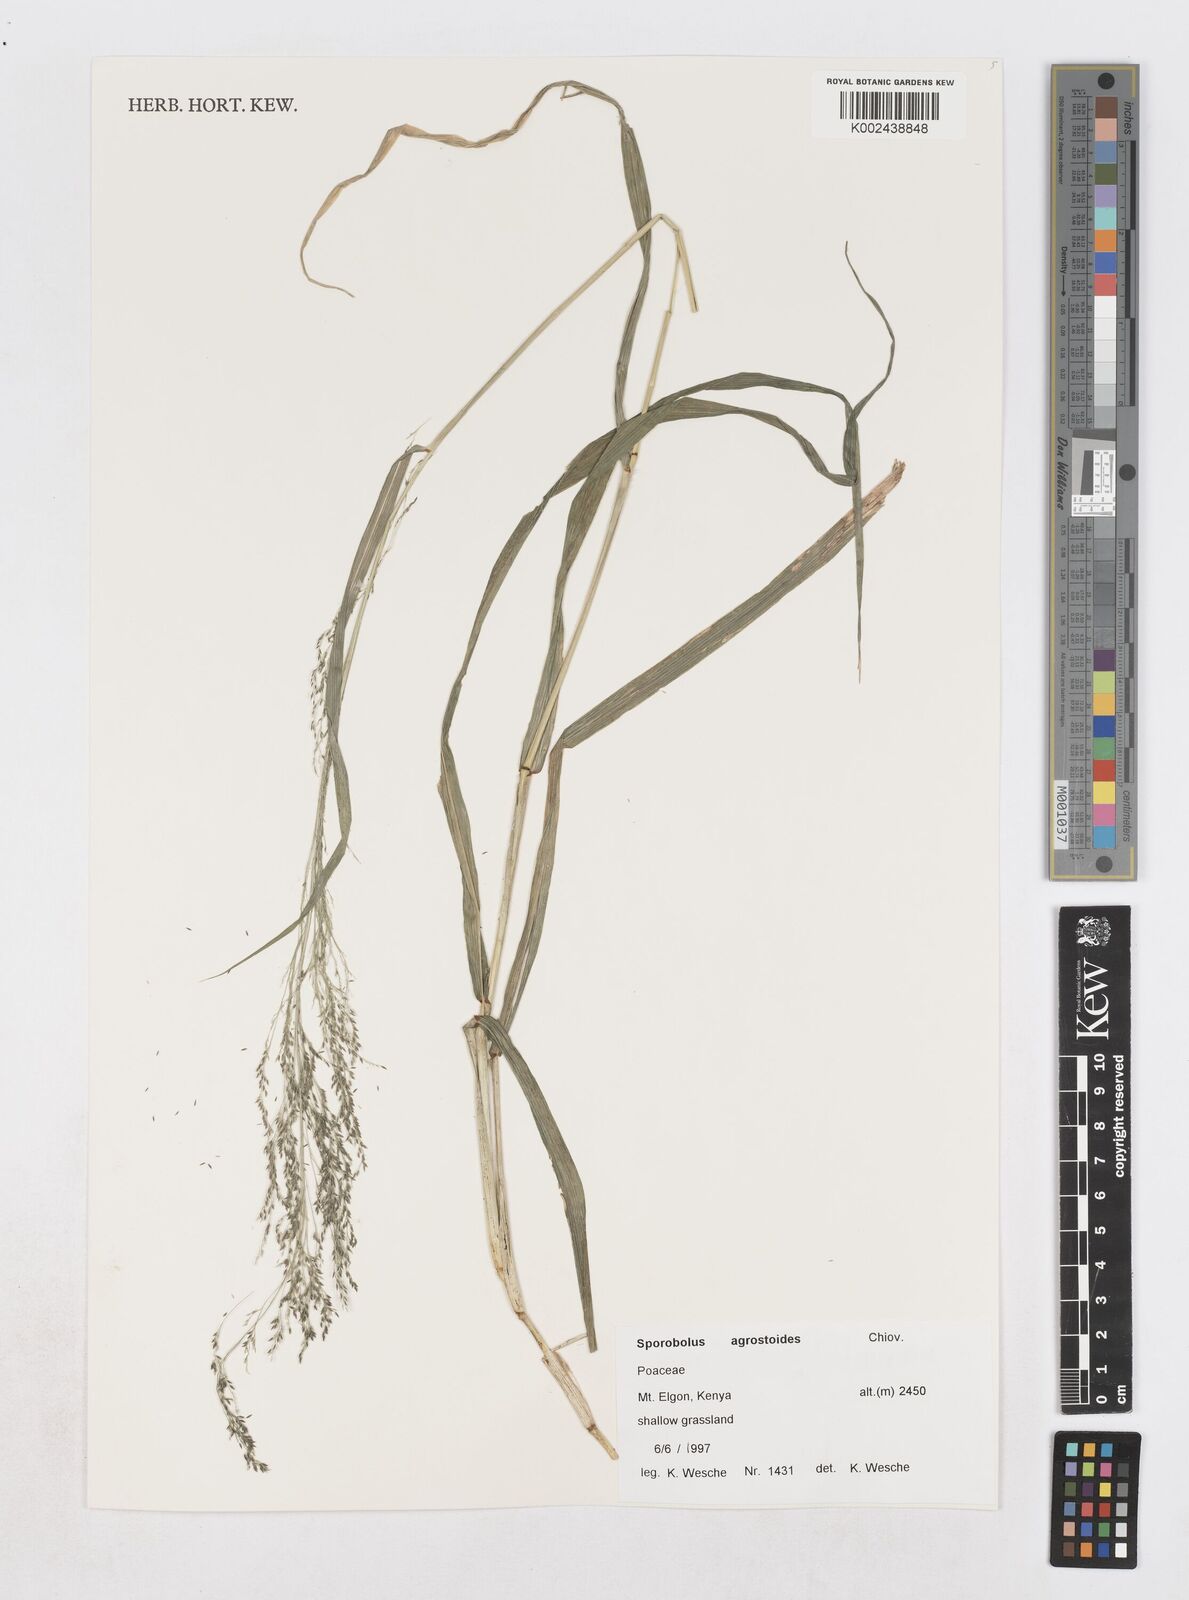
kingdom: Plantae
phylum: Tracheophyta
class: Liliopsida
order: Poales
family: Poaceae
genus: Sporobolus
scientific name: Sporobolus agrostoides
